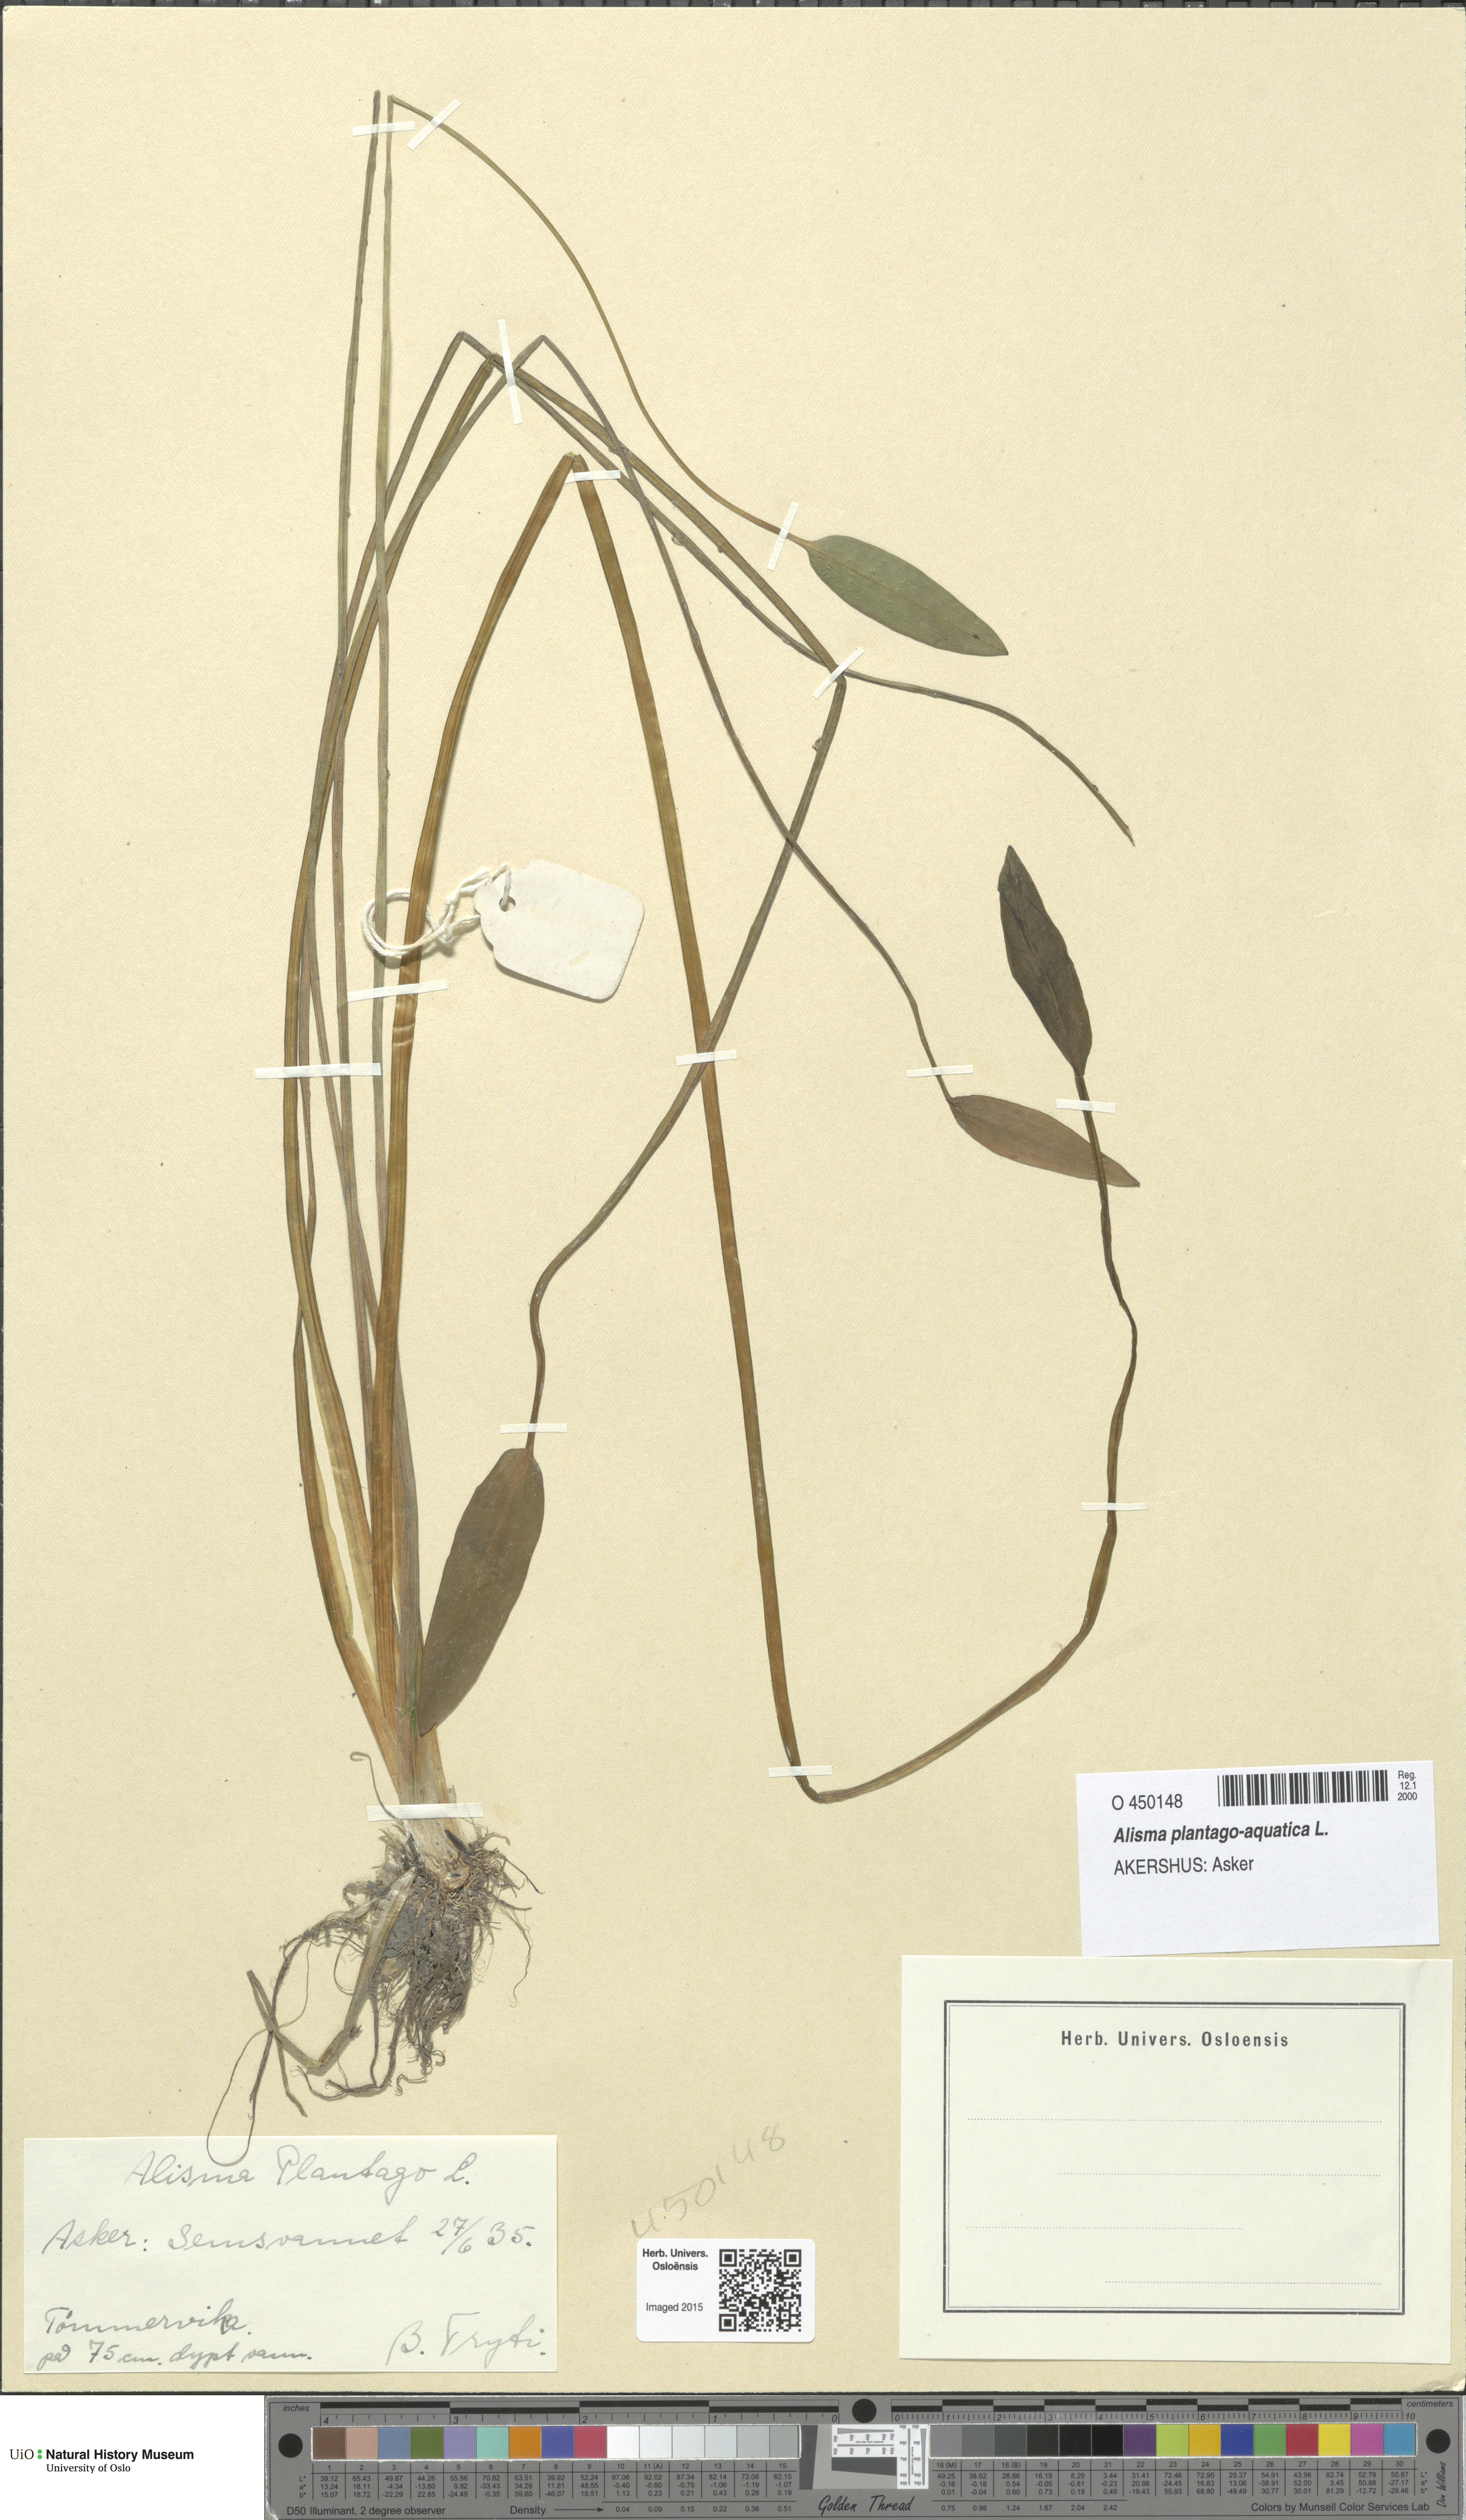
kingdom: Plantae
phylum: Tracheophyta
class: Liliopsida
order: Alismatales
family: Alismataceae
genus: Alisma
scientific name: Alisma plantago-aquatica
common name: Water-plantain
